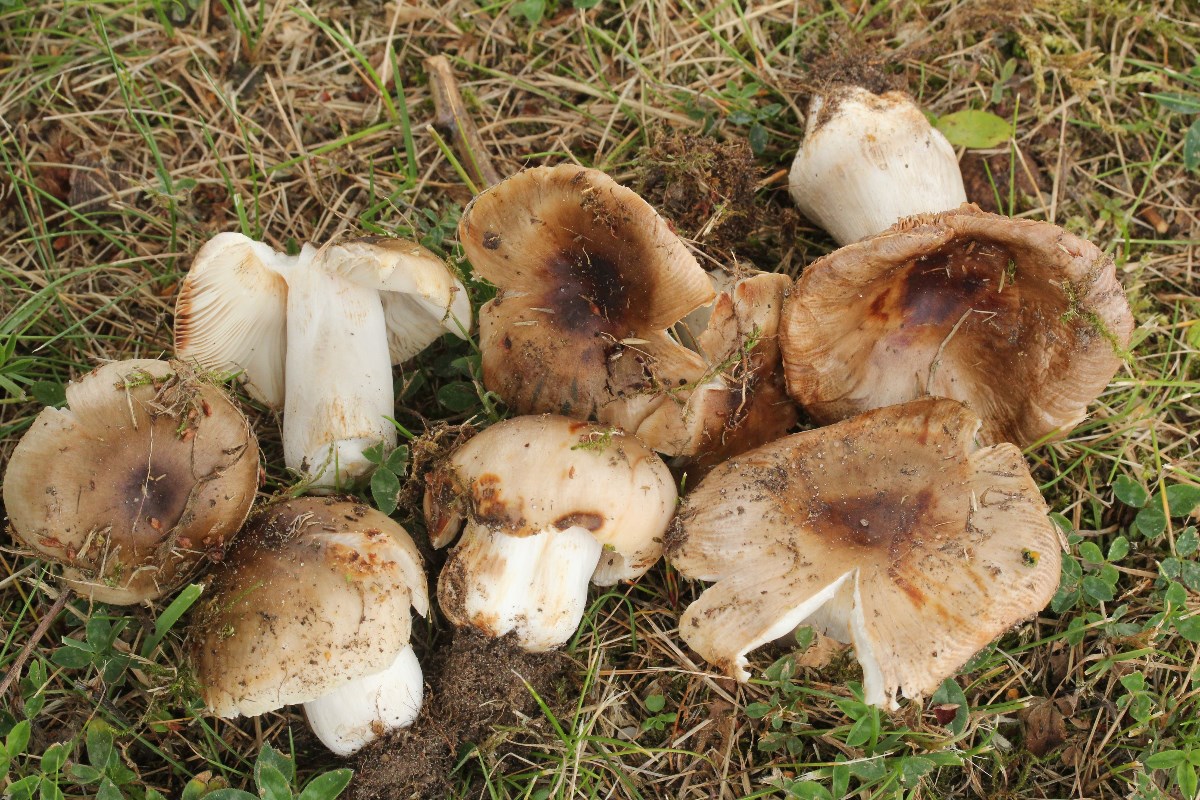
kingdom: Fungi
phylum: Basidiomycota
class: Agaricomycetes
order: Russulales
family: Russulaceae
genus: Russula
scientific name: Russula amoenolens
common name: skarp kam-skørhat
